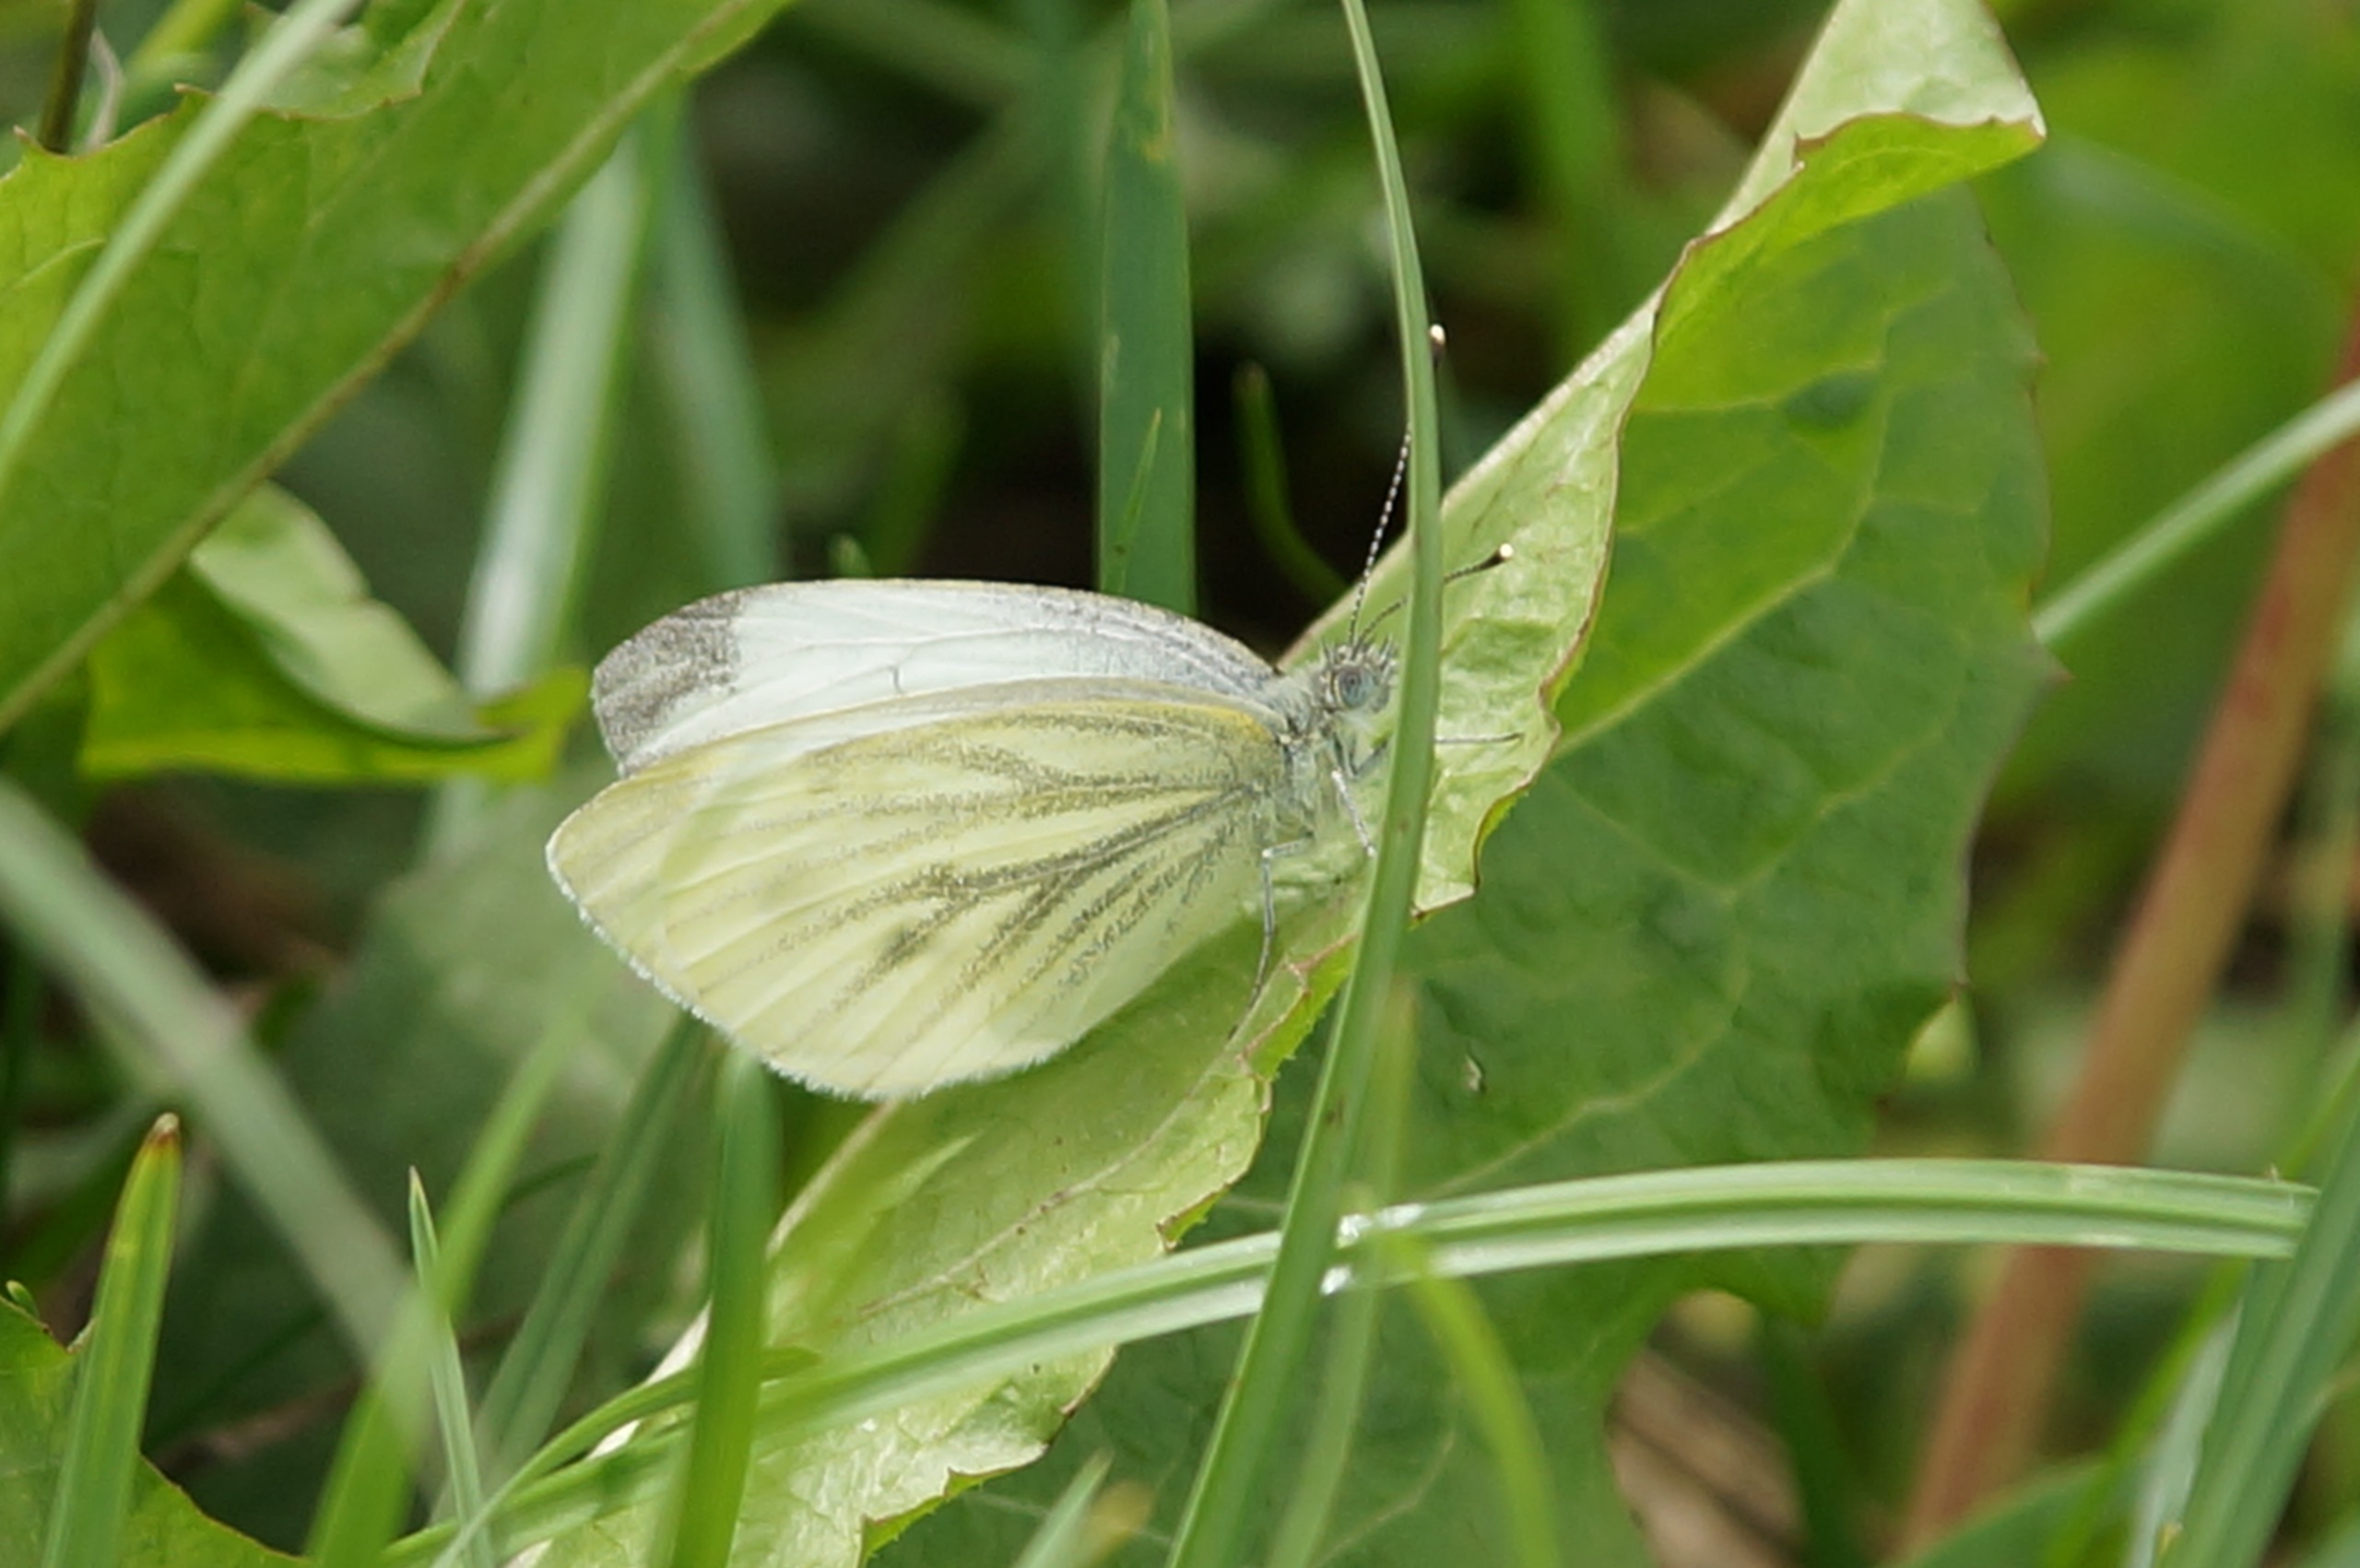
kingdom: Animalia
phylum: Arthropoda
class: Insecta
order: Lepidoptera
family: Pieridae
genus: Pieris
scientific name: Pieris napi
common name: Grønåret kålsommerfugl
